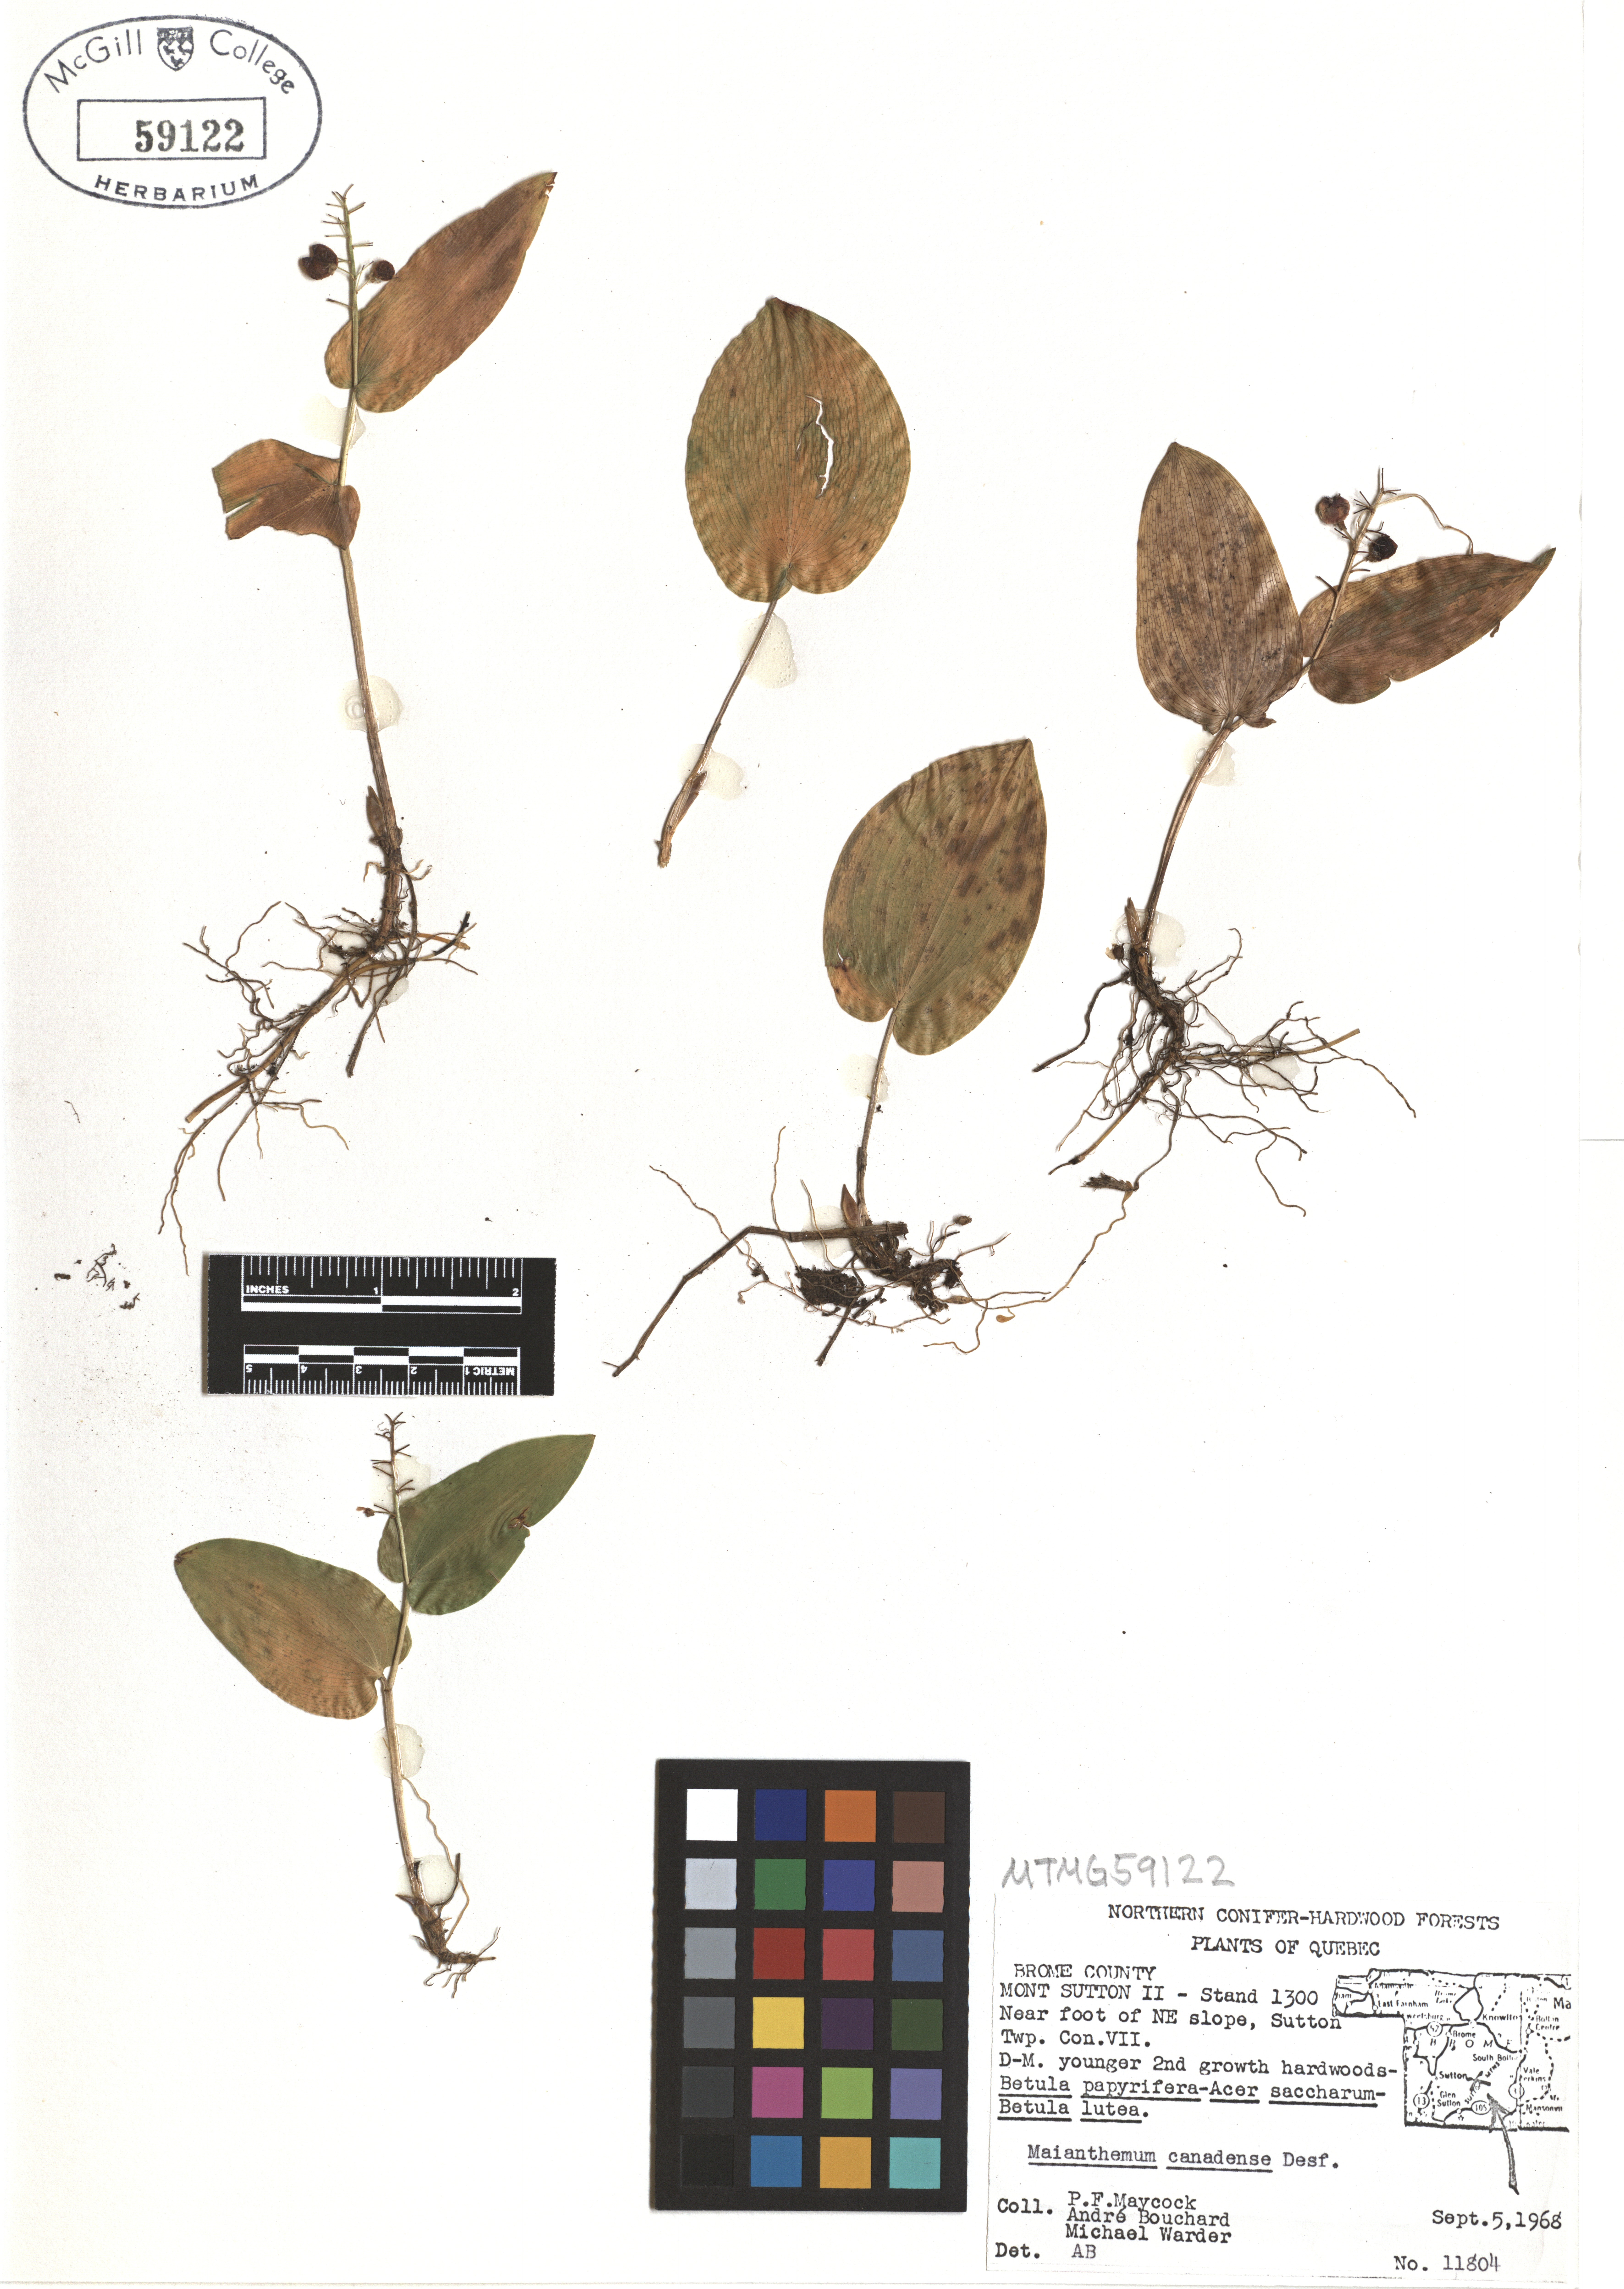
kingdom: Plantae
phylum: Tracheophyta
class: Liliopsida
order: Asparagales
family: Asparagaceae
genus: Maianthemum
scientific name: Maianthemum canadense
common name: False lily-of-the-valley
